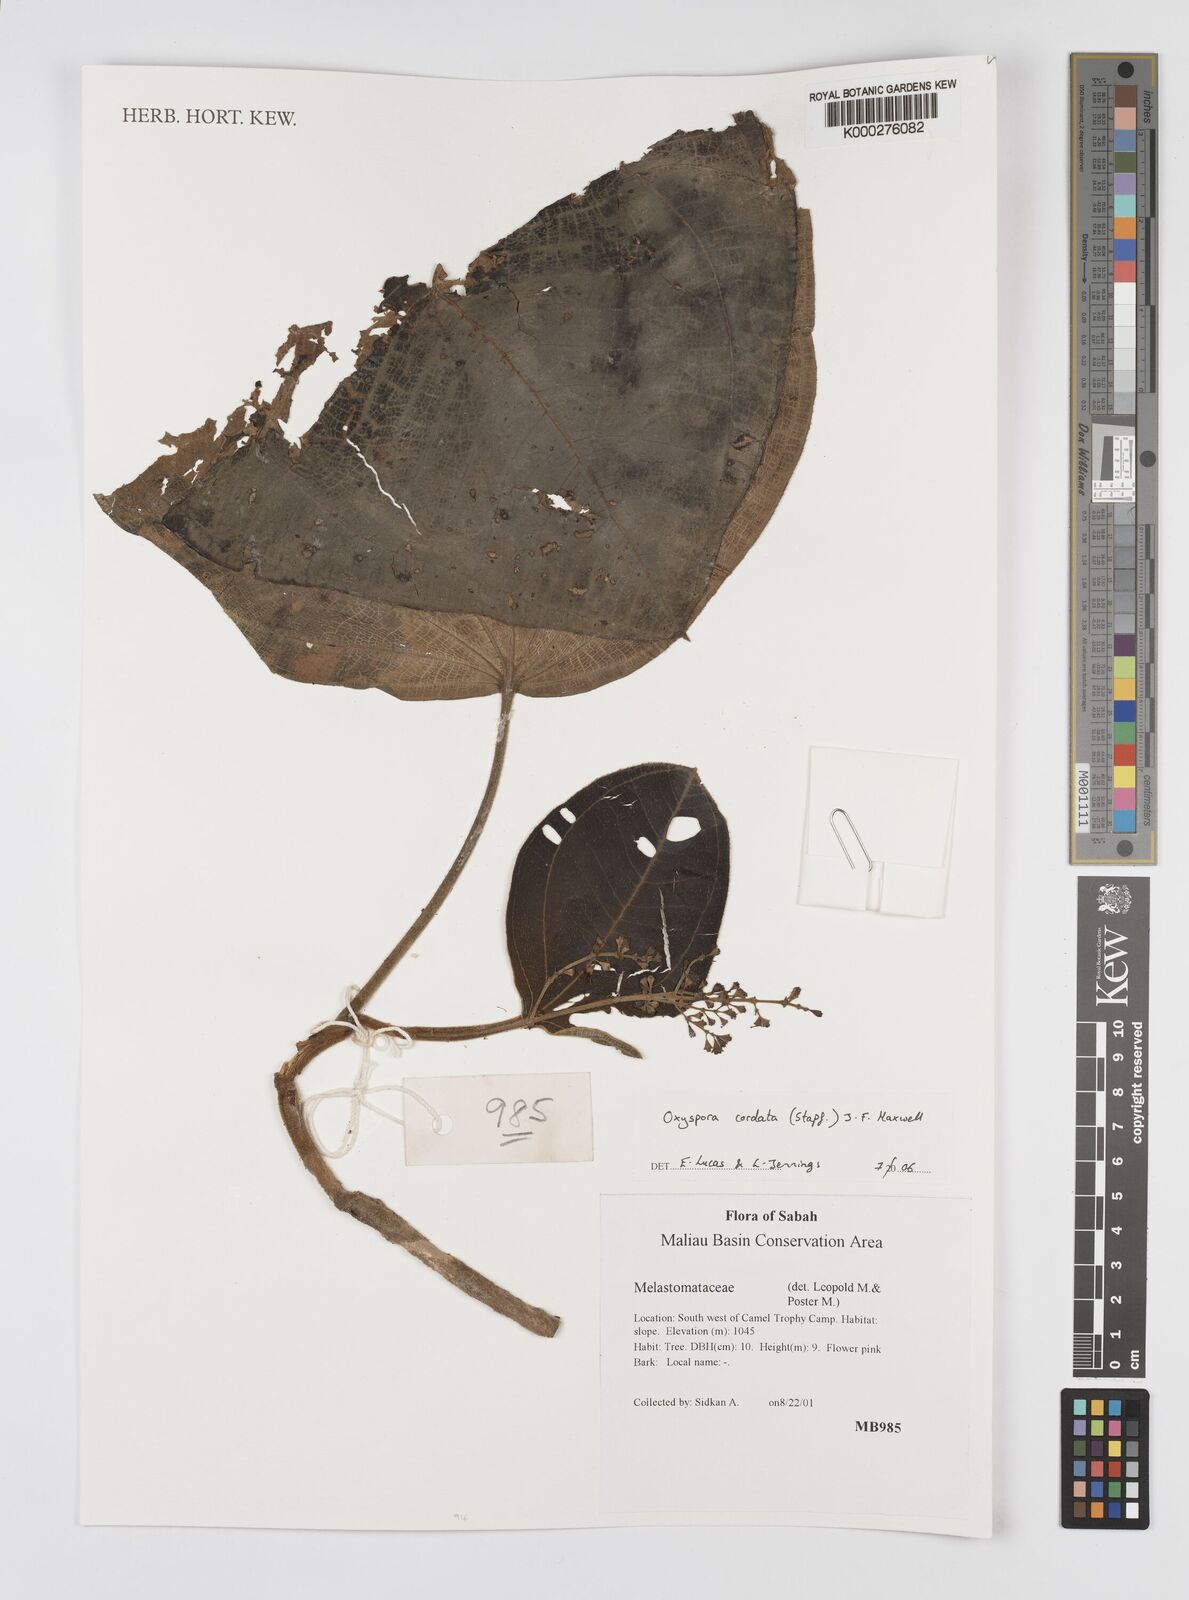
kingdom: Plantae
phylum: Tracheophyta
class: Magnoliopsida
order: Myrtales
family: Melastomataceae
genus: Anerincleistus
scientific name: Anerincleistus cordatus
